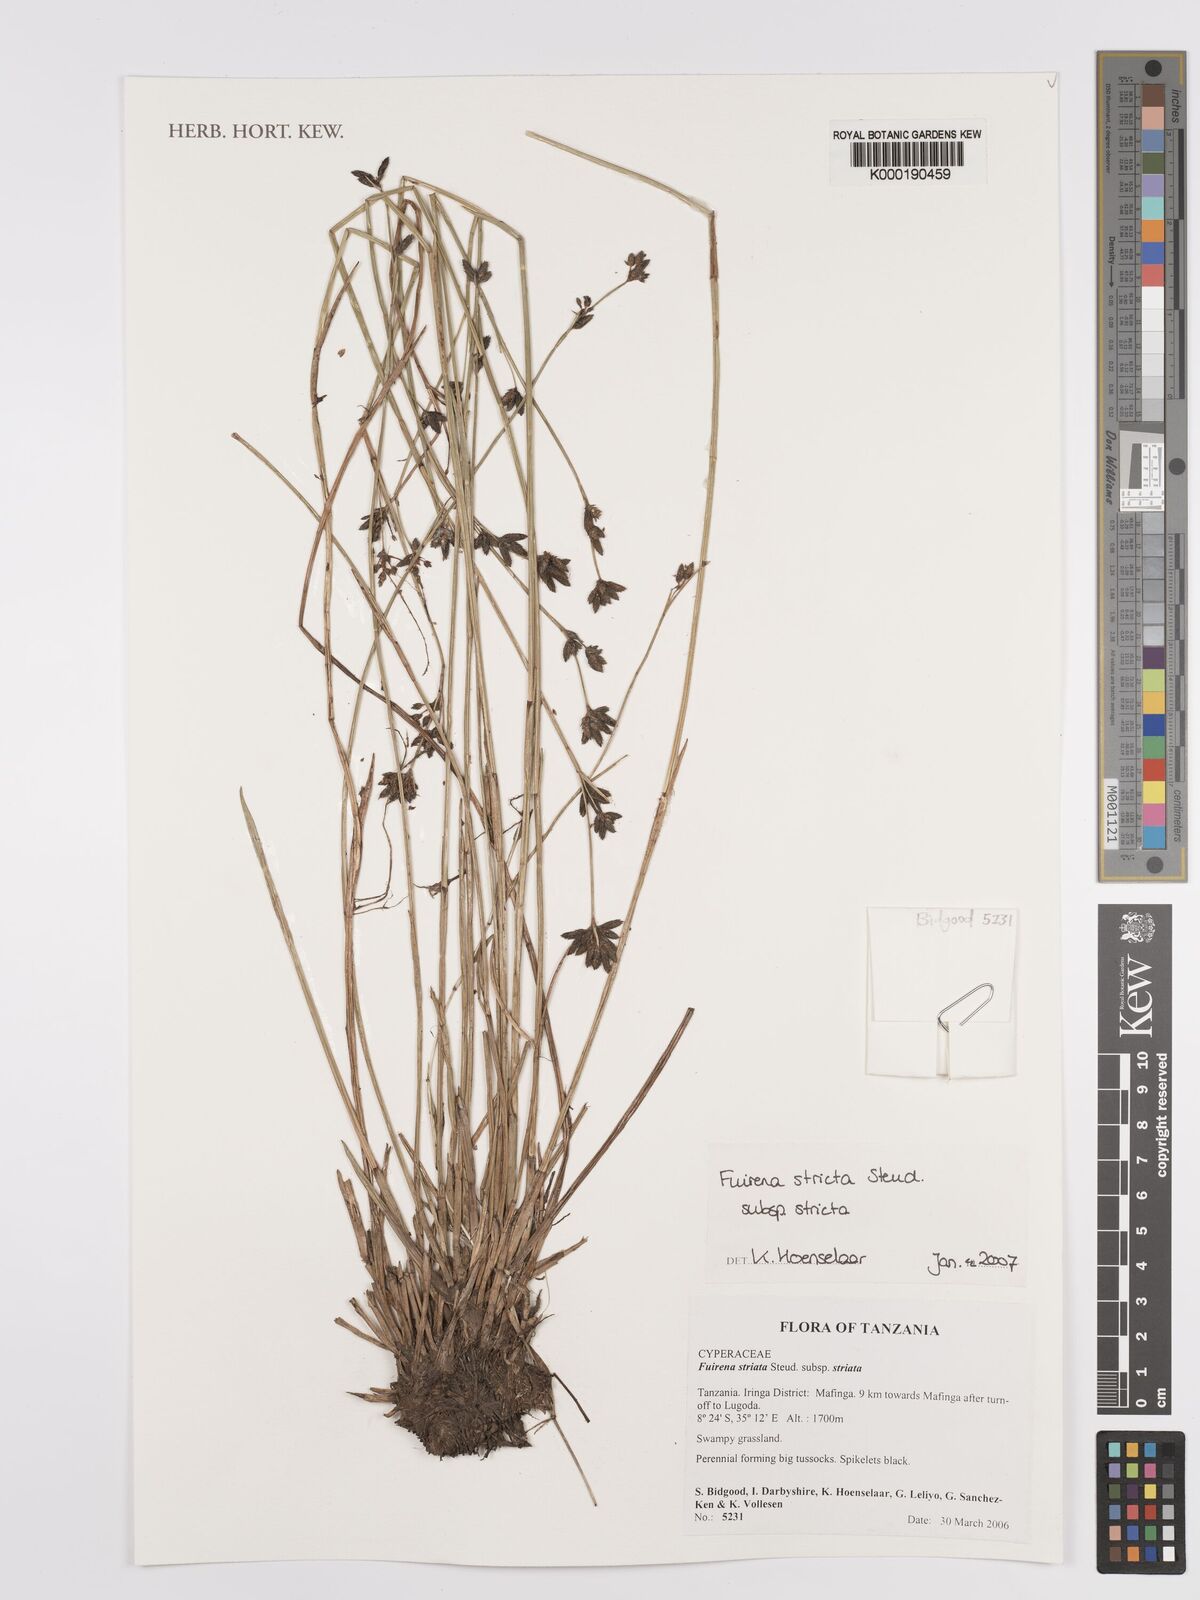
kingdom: Plantae
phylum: Tracheophyta
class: Liliopsida
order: Poales
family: Cyperaceae
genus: Fuirena
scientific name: Fuirena
